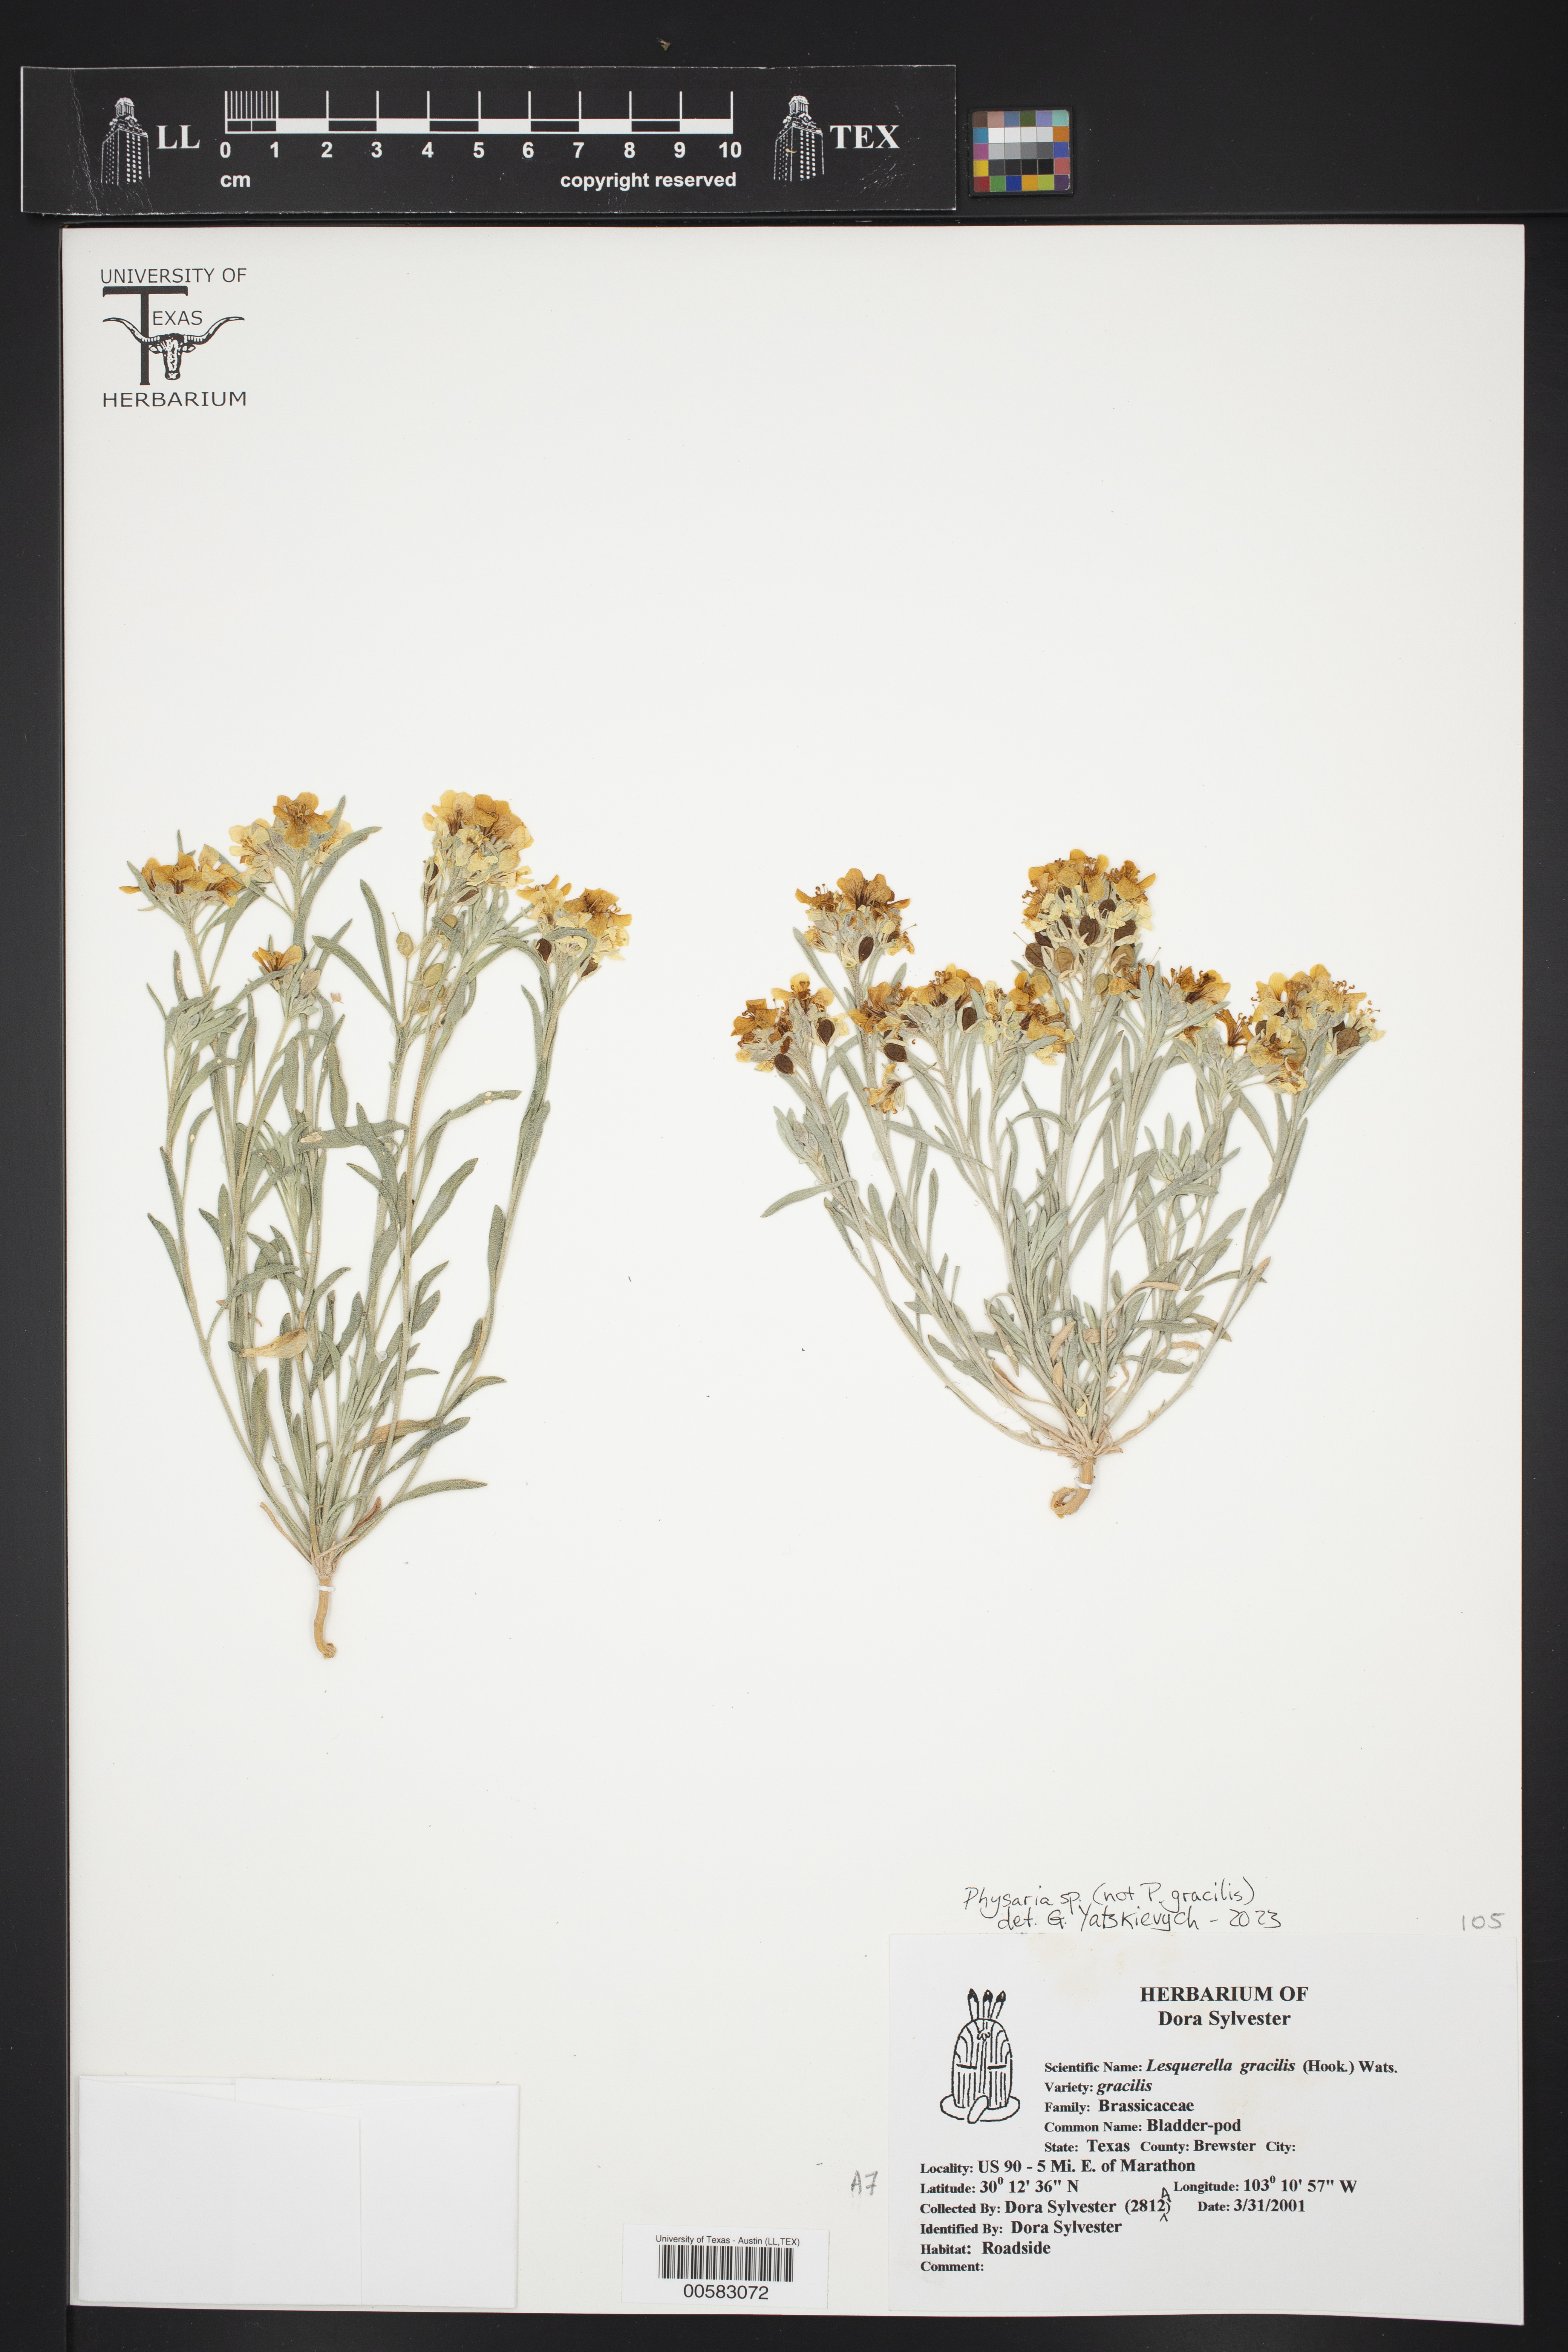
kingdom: Plantae
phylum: Tracheophyta
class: Magnoliopsida
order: Brassicales
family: Brassicaceae
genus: Physaria
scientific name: Physaria fendleri
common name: Fendler's bladderpod
